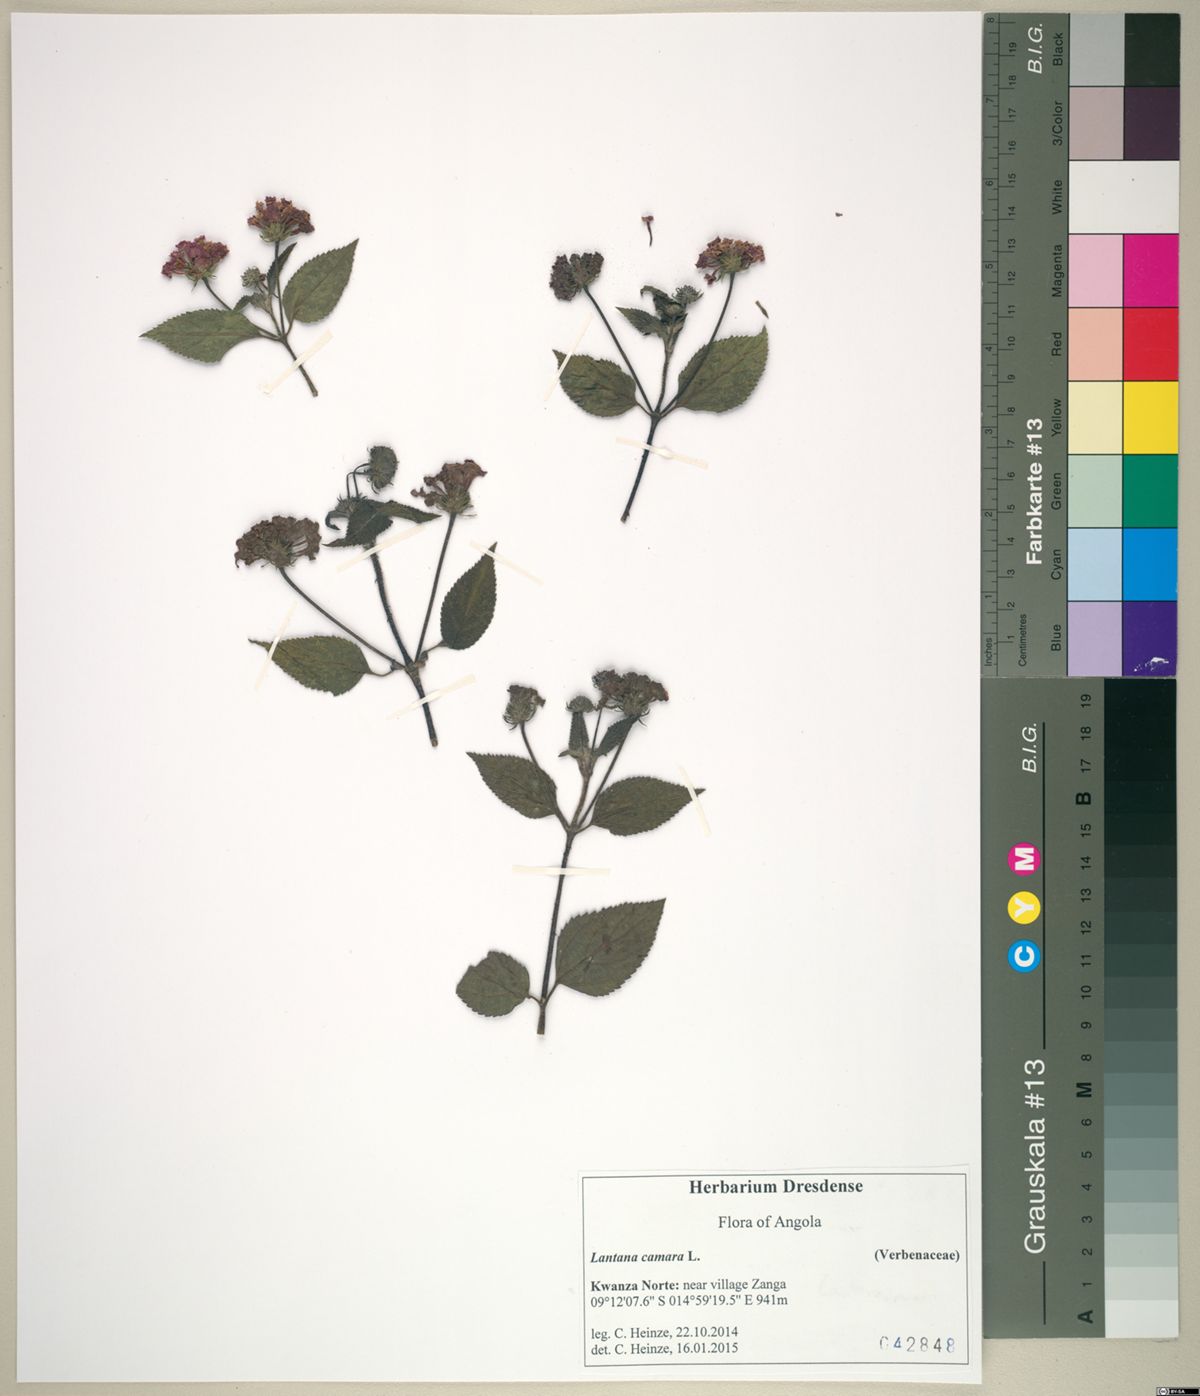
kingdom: Plantae
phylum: Tracheophyta
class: Magnoliopsida
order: Lamiales
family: Verbenaceae
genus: Lantana
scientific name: Lantana camara
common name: Lantana
